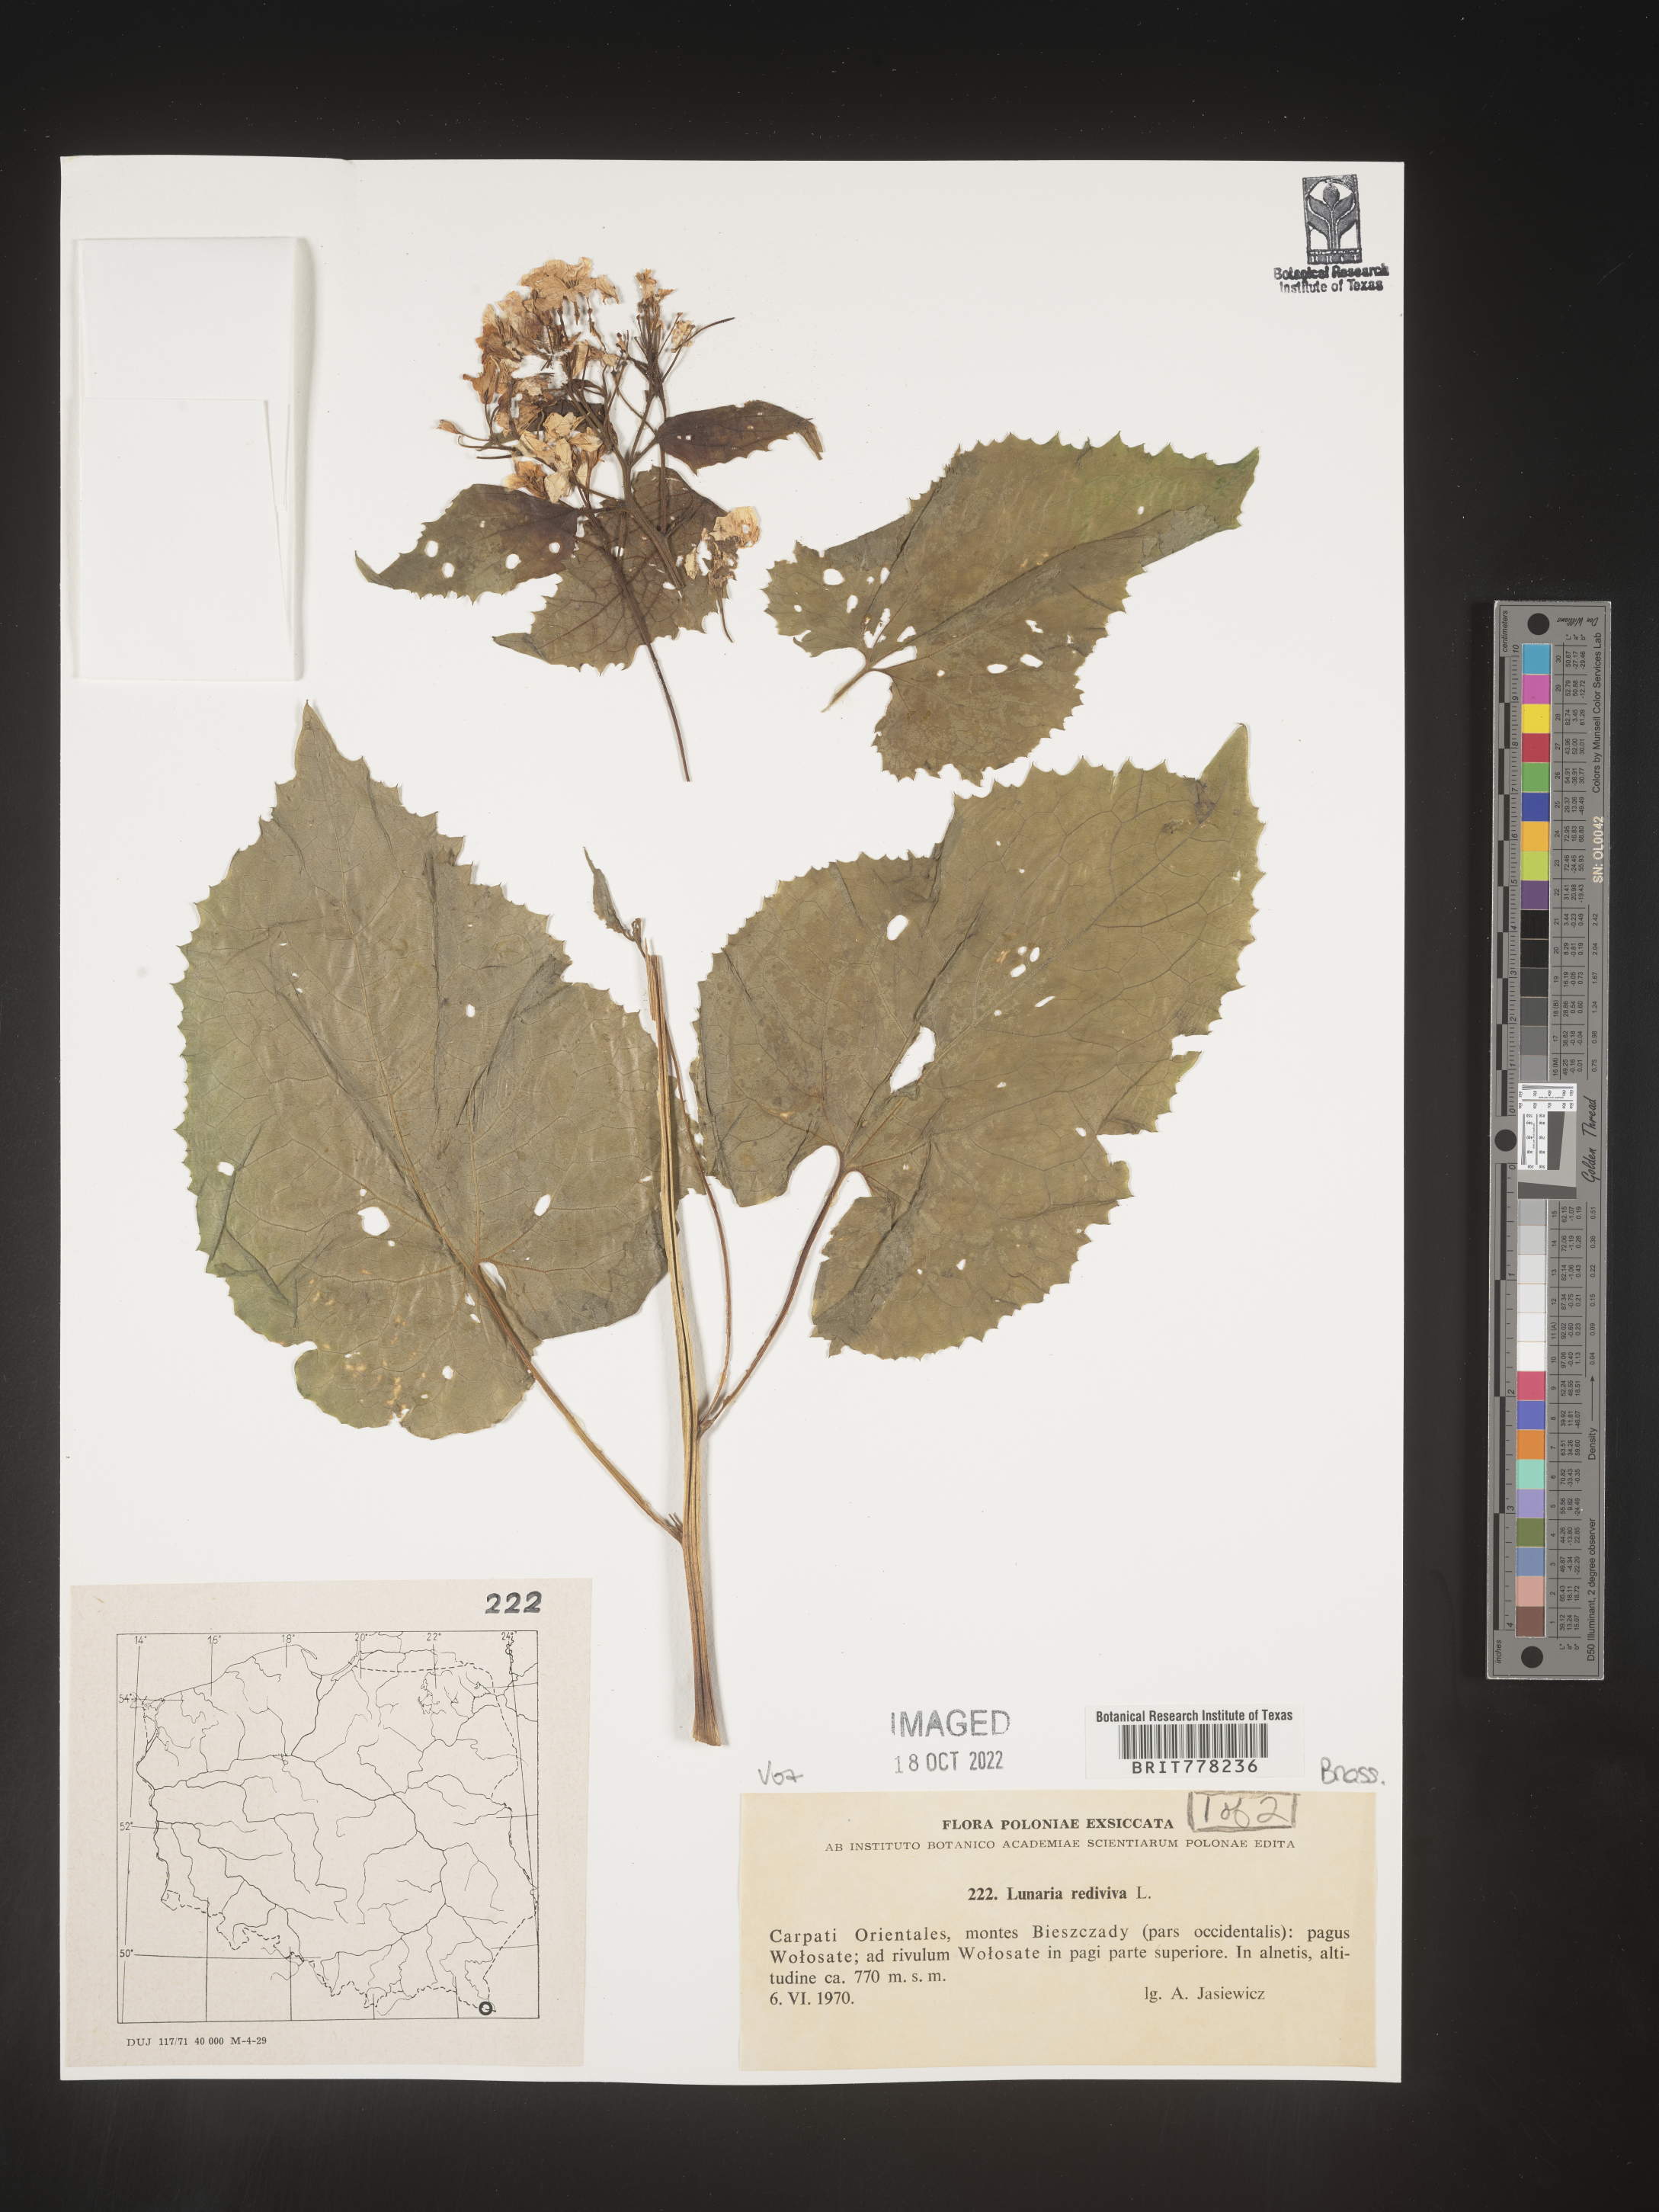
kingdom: Plantae
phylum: Tracheophyta
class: Magnoliopsida
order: Brassicales
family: Brassicaceae
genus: Lunaria
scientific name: Lunaria
